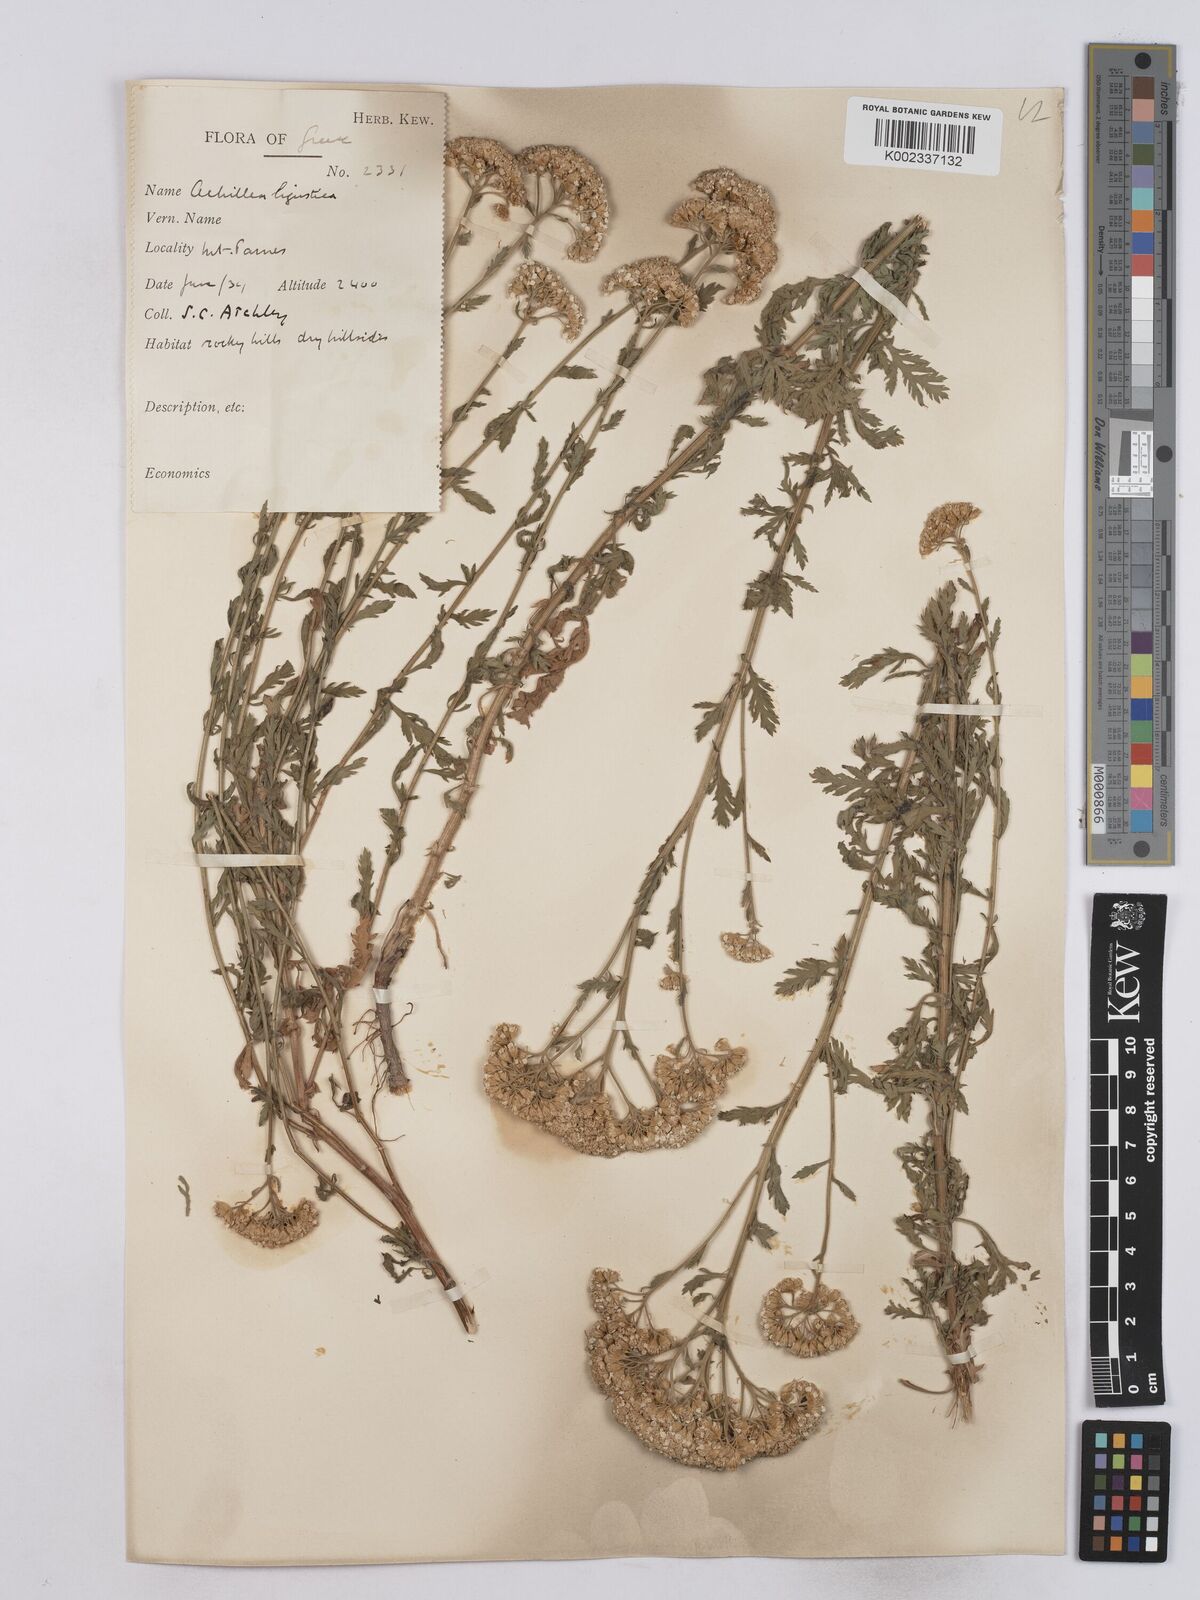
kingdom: Plantae
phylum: Tracheophyta
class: Magnoliopsida
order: Asterales
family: Asteraceae
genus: Achillea
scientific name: Achillea ligustica
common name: Southern yarrow
